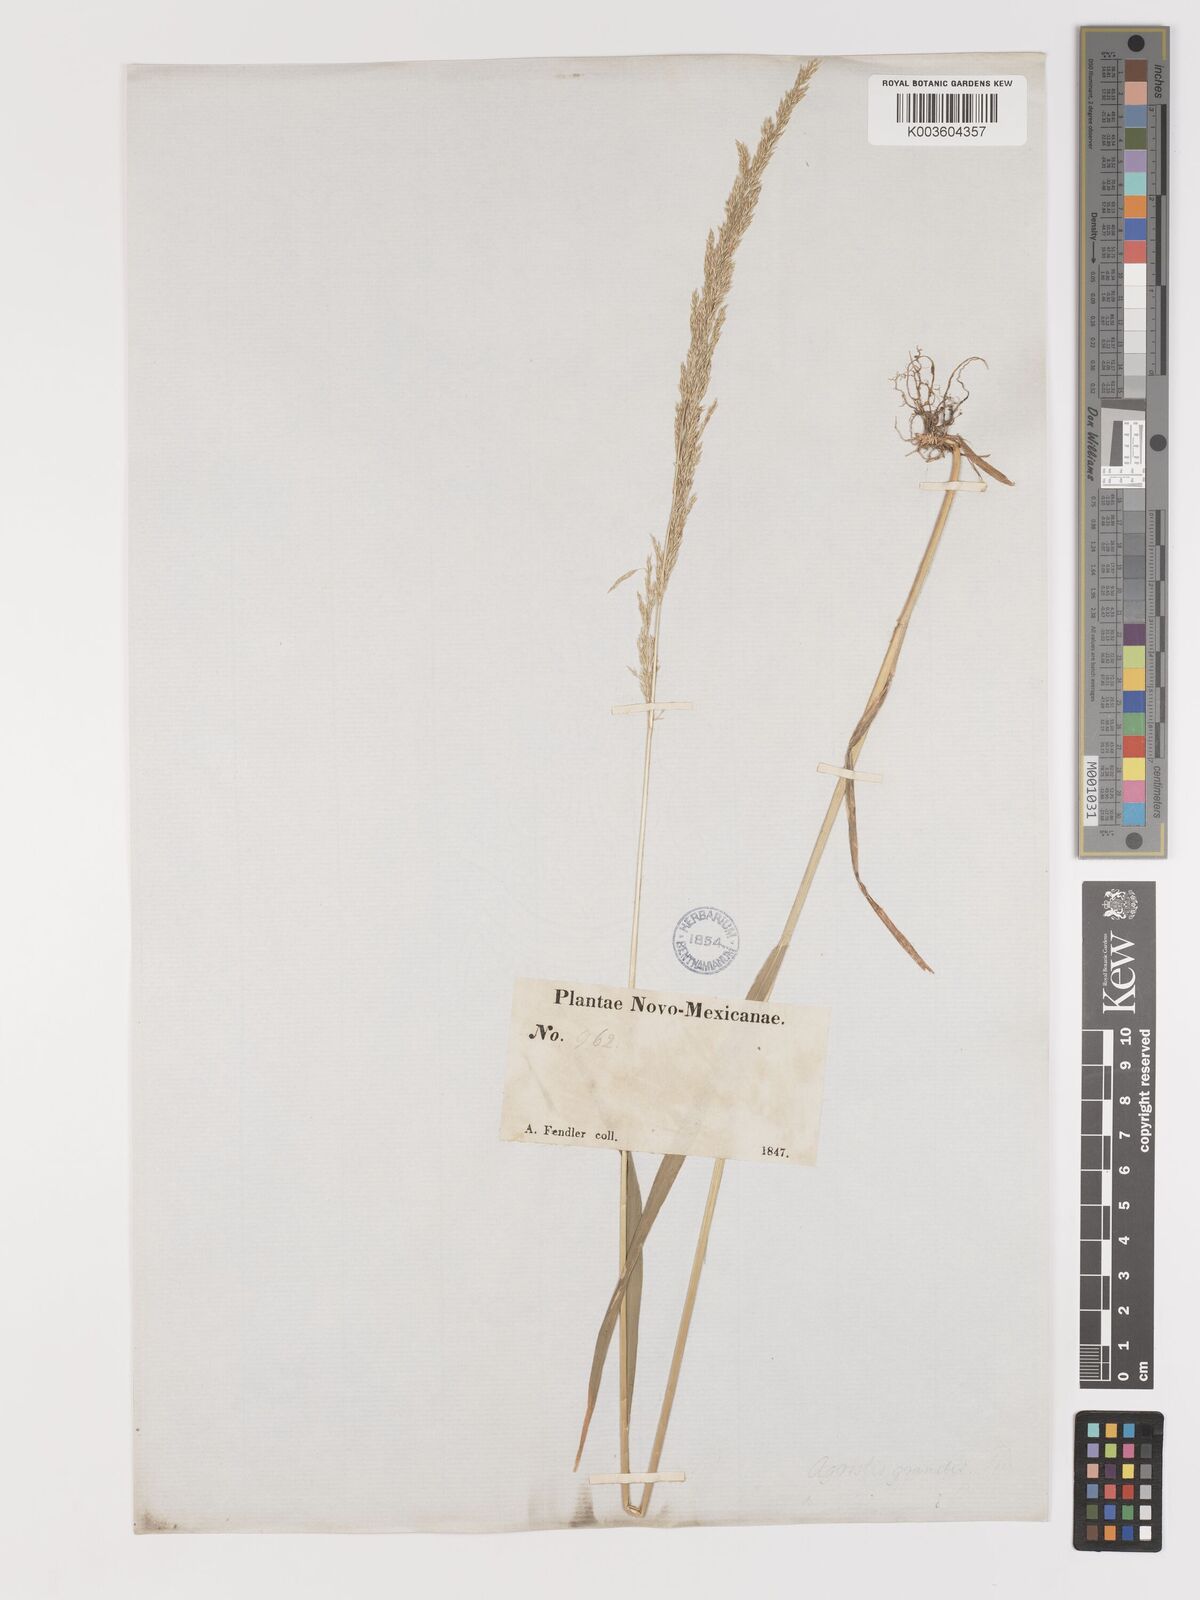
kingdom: Plantae
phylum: Tracheophyta
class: Liliopsida
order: Poales
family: Poaceae
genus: Agrostis
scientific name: Agrostis exarata
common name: Spike bent
